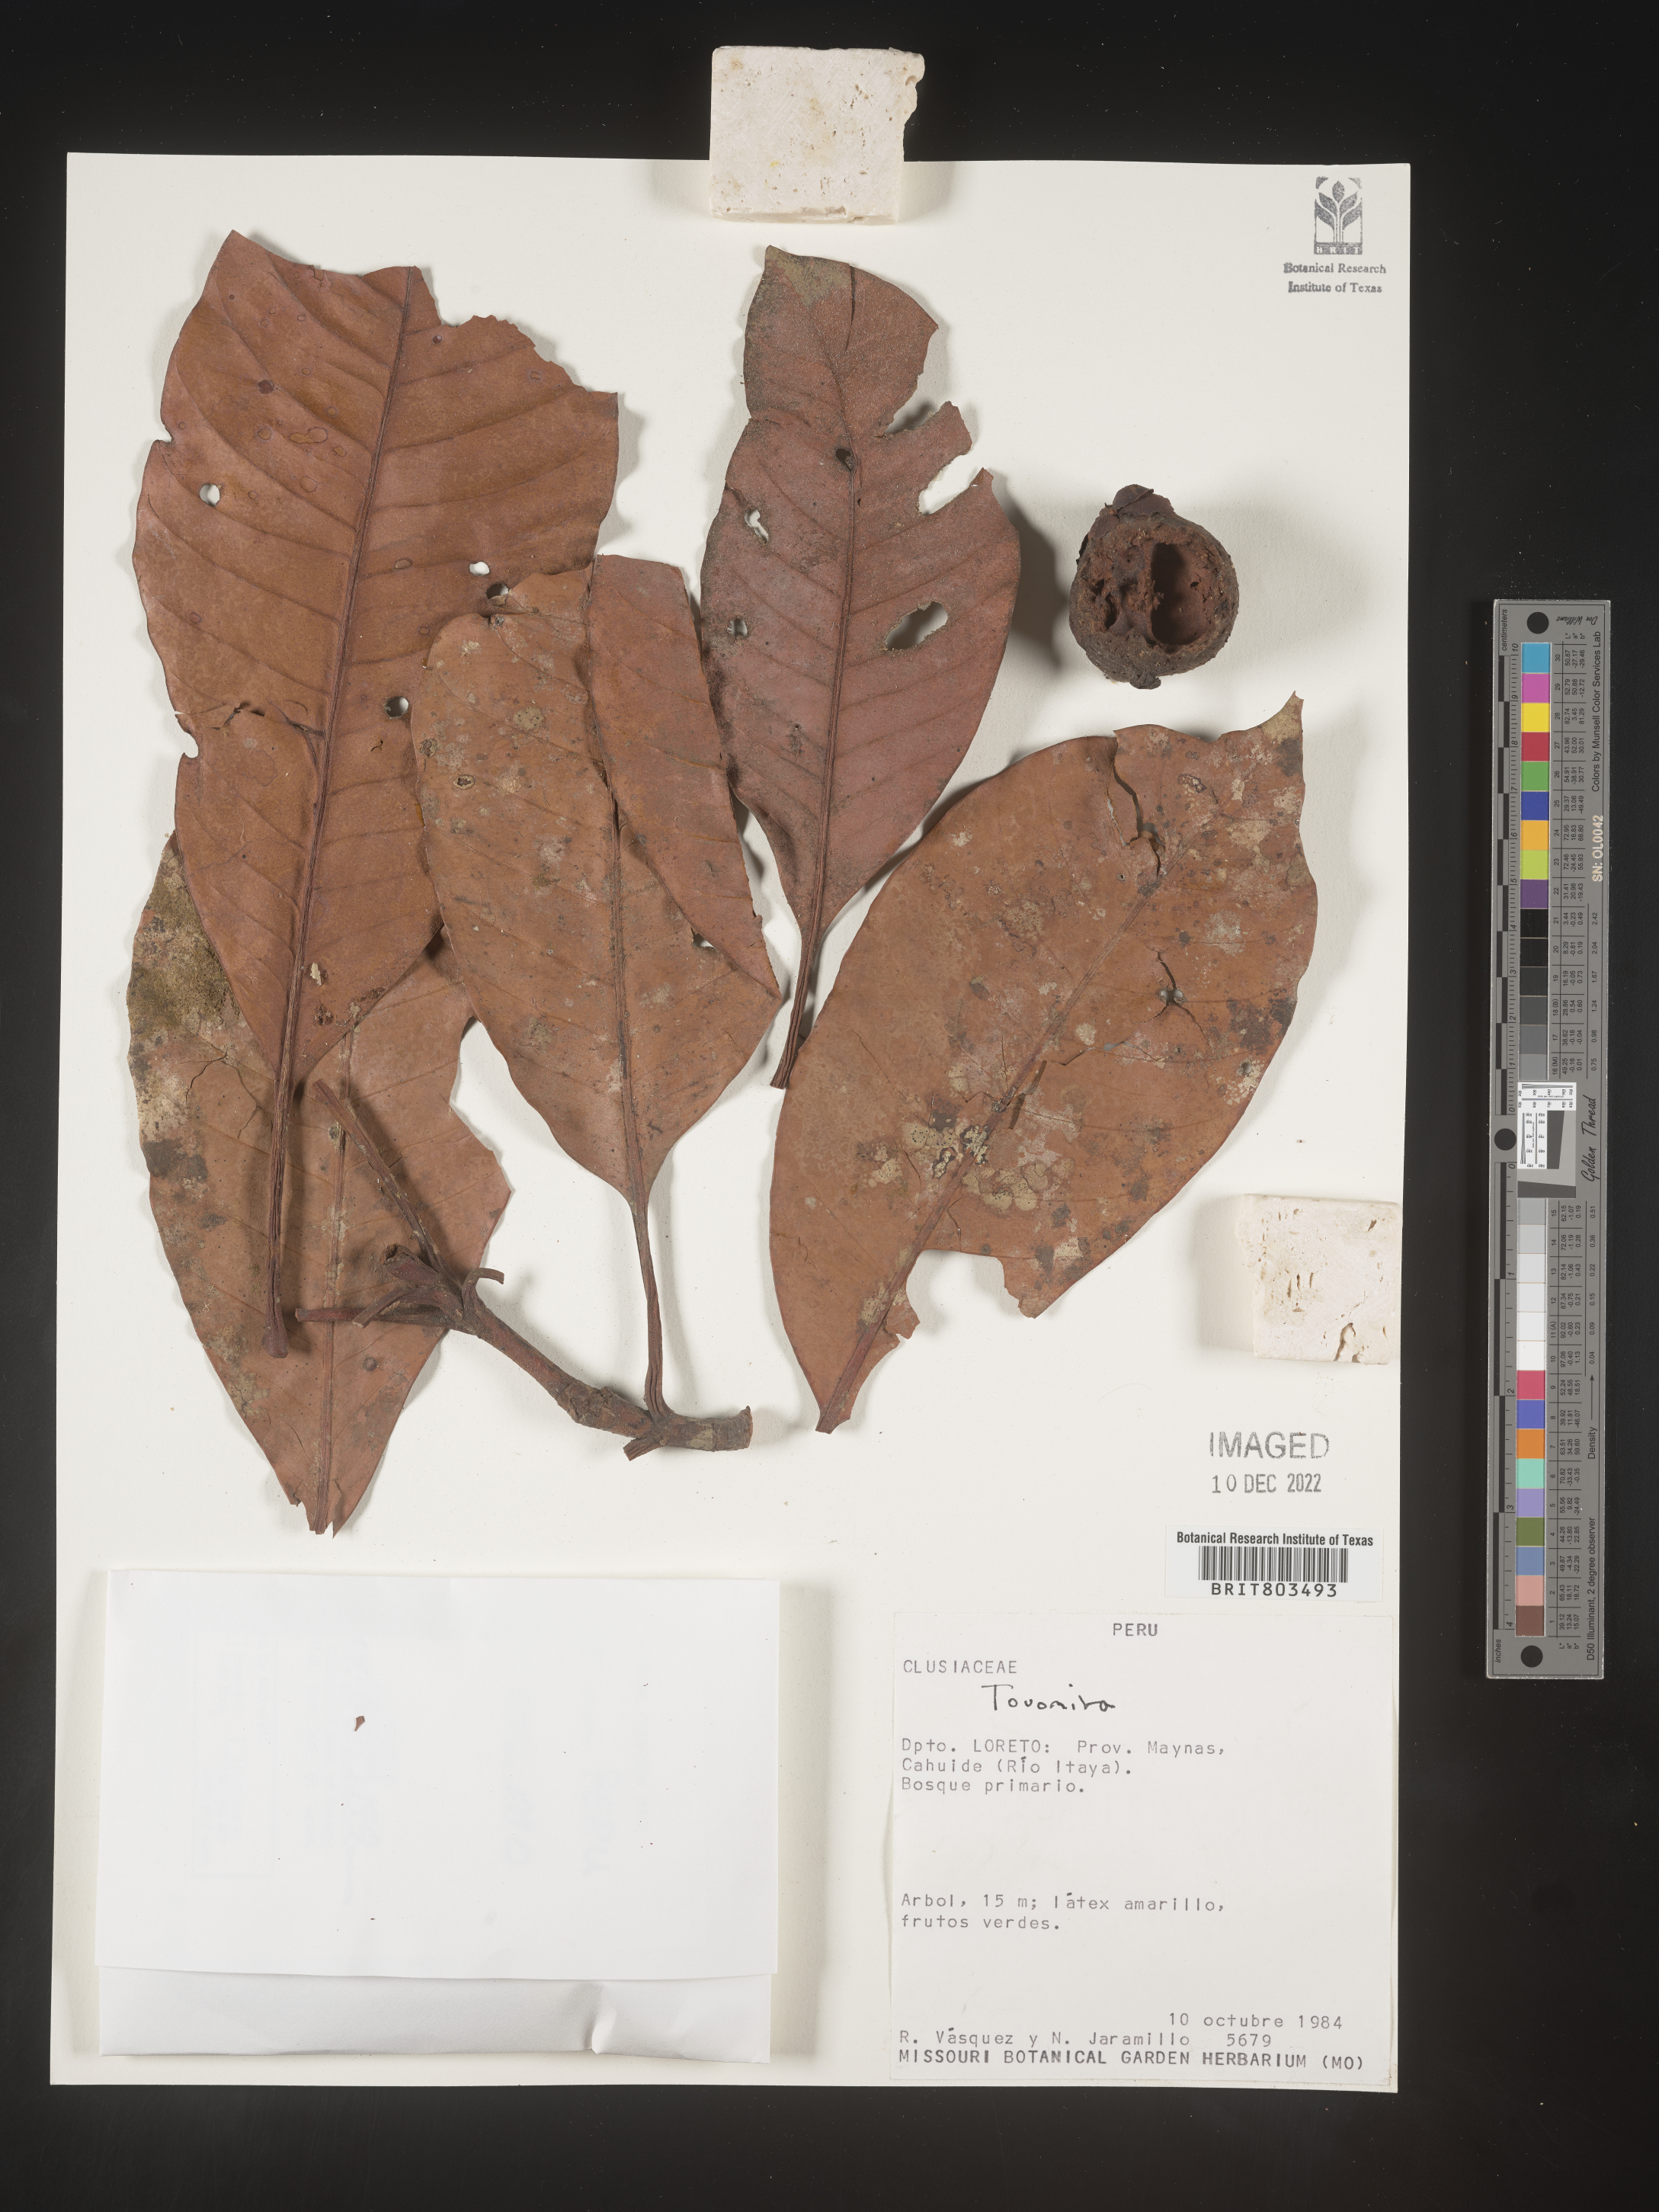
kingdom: Plantae
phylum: Tracheophyta
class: Magnoliopsida
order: Malpighiales
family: Clusiaceae
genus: Tovomita
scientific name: Tovomita
